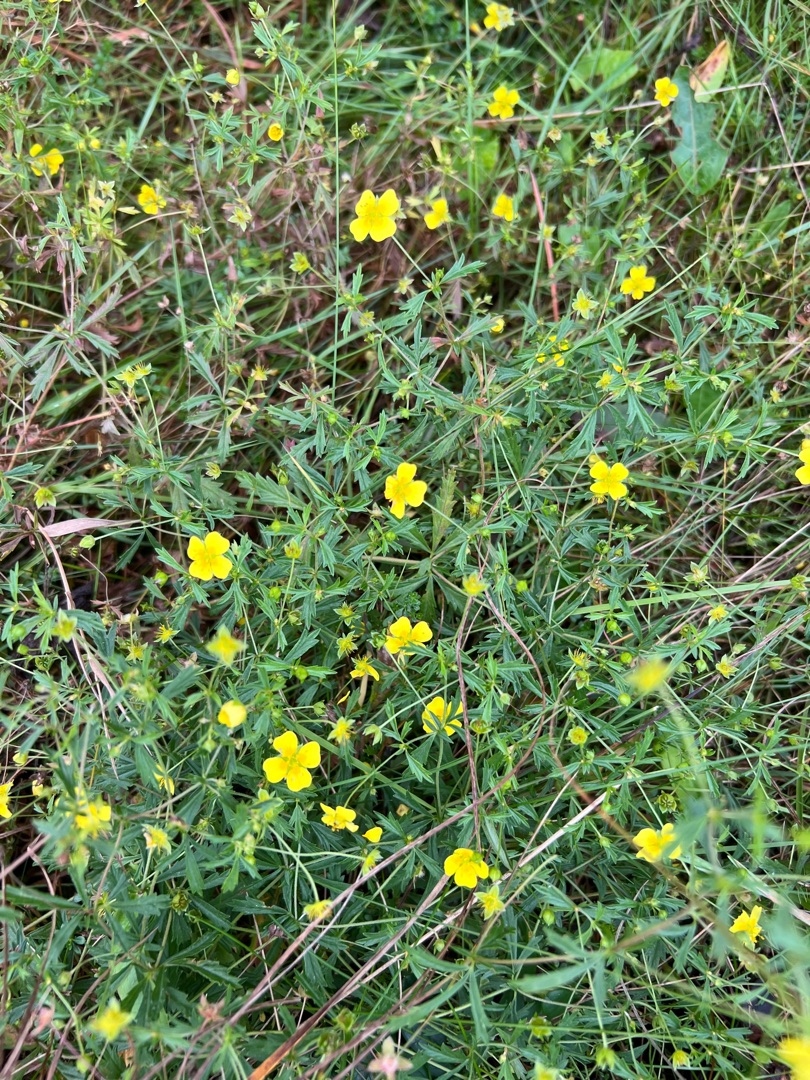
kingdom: Plantae
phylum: Tracheophyta
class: Magnoliopsida
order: Rosales
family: Rosaceae
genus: Potentilla
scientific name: Potentilla erecta
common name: Tormentil
